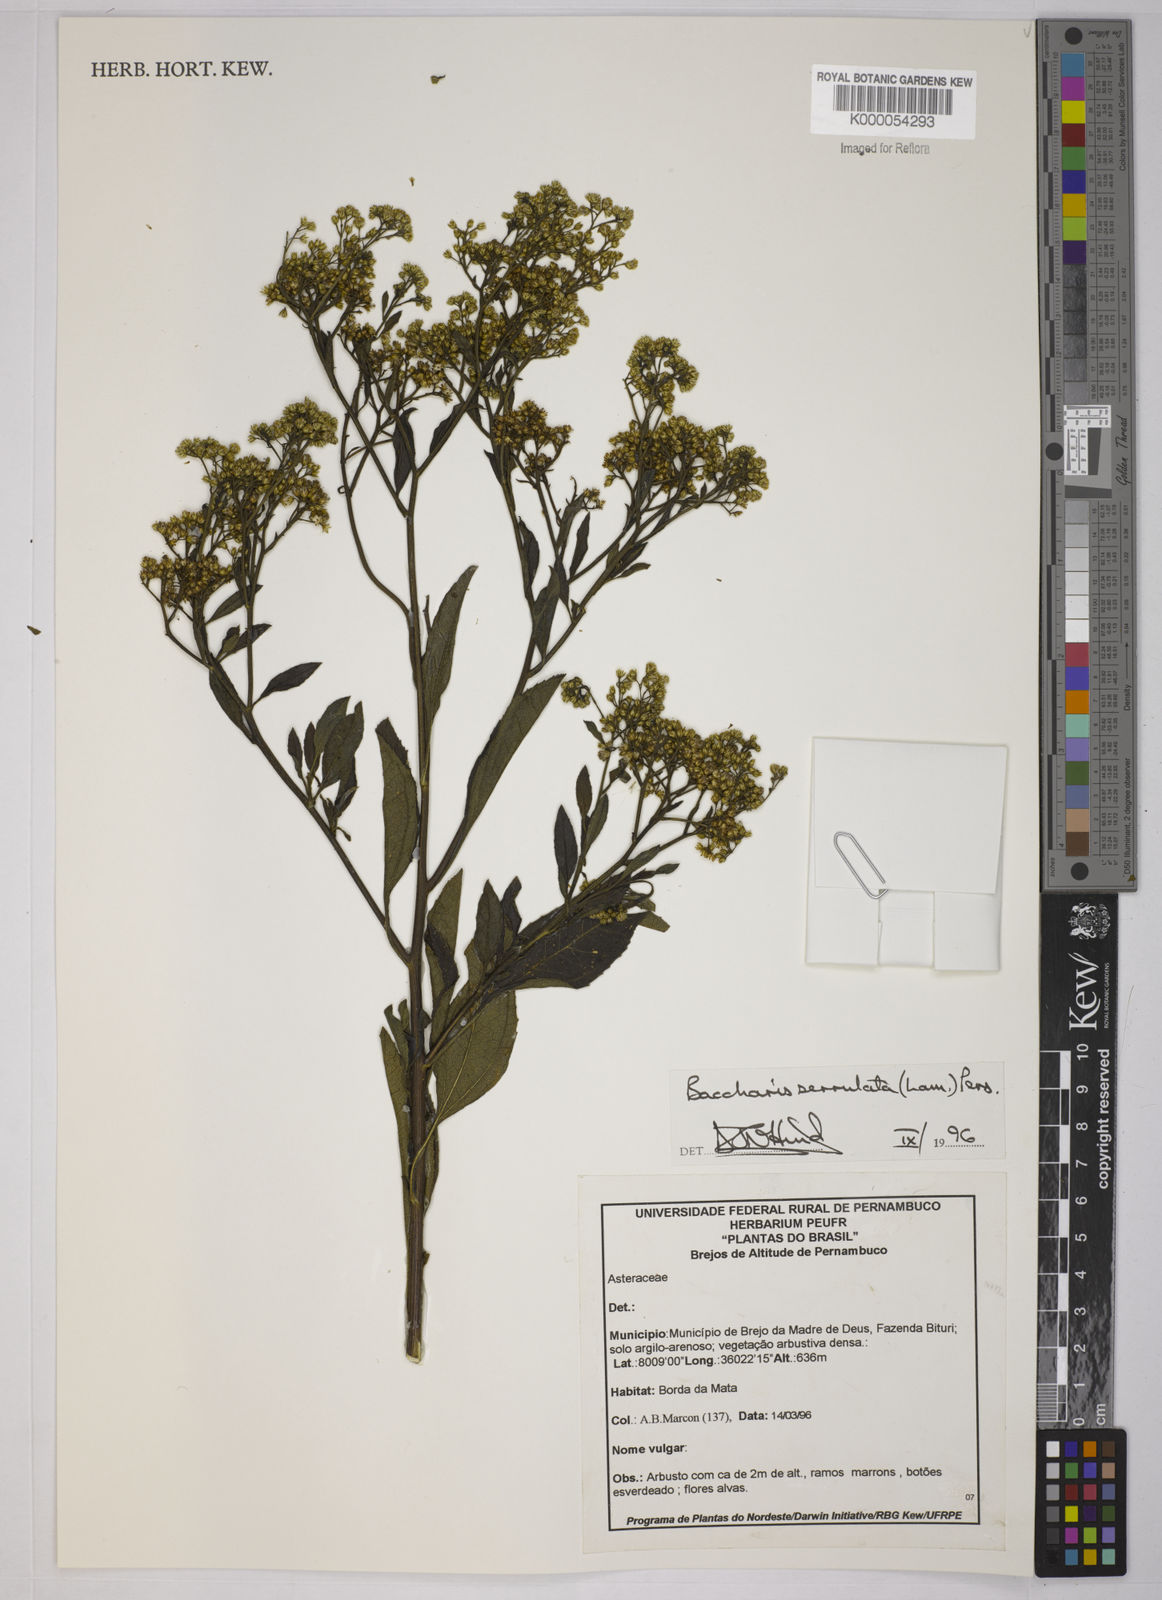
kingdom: Plantae
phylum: Tracheophyta
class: Magnoliopsida
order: Asterales
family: Asteraceae
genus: Baccharis
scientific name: Baccharis serrulata
